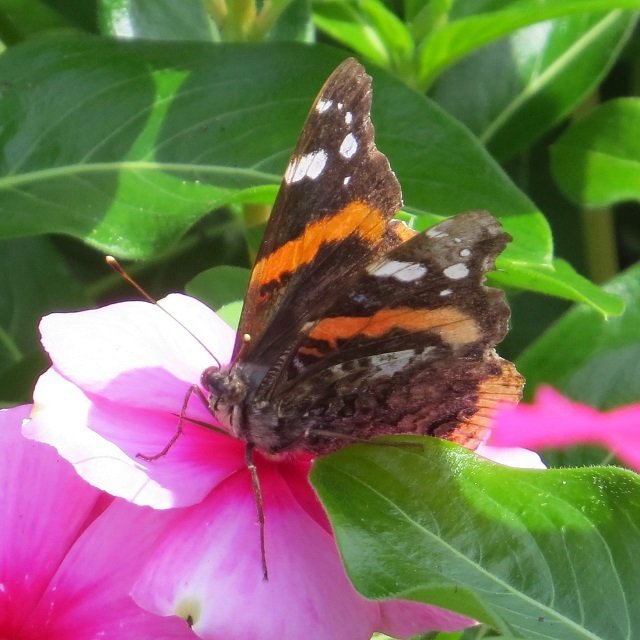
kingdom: Animalia
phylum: Arthropoda
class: Insecta
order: Lepidoptera
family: Nymphalidae
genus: Vanessa
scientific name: Vanessa atalanta
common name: Red Admiral
